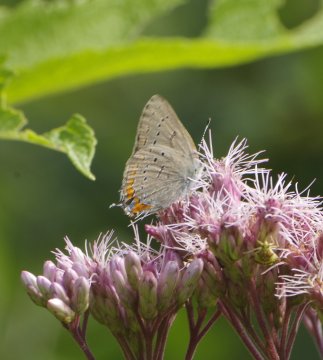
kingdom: Animalia
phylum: Arthropoda
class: Insecta
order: Lepidoptera
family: Lycaenidae
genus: Strymon
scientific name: Strymon acadica
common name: Acadian Hairstreak
